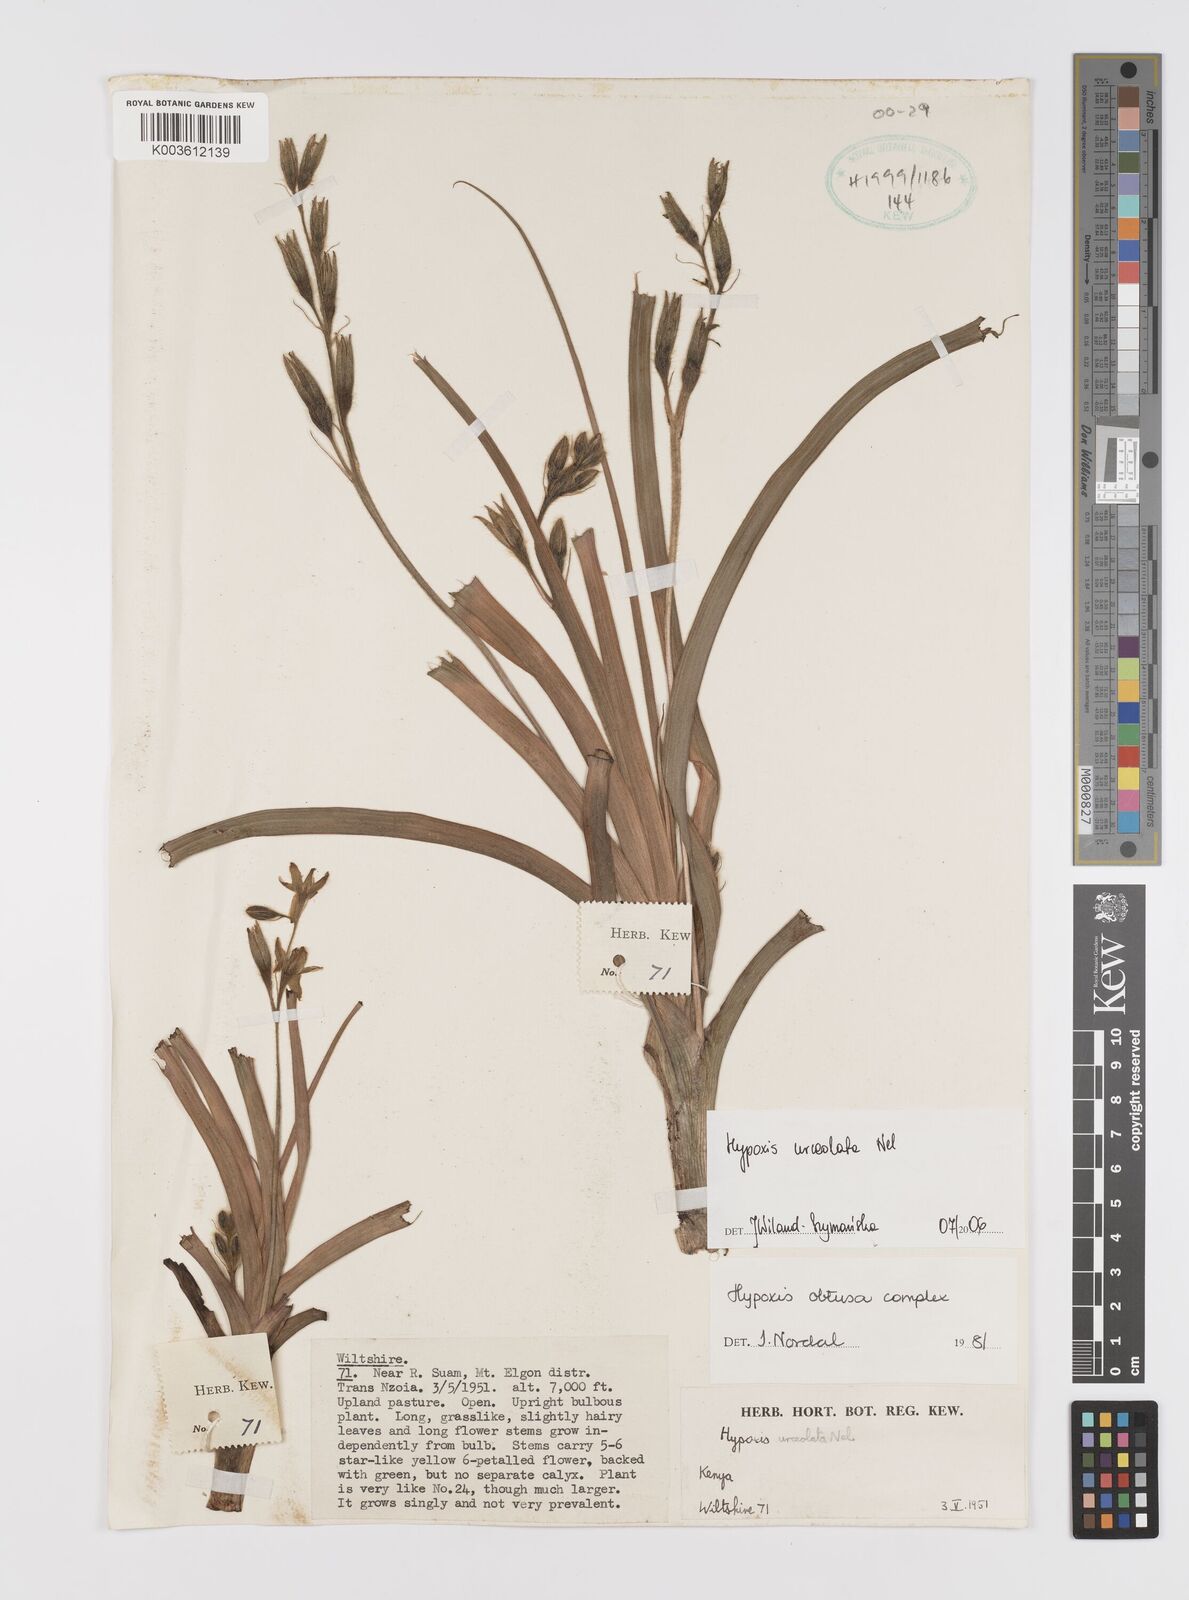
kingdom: Plantae
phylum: Tracheophyta
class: Liliopsida
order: Asparagales
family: Hypoxidaceae
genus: Hypoxis
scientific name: Hypoxis urceolata
